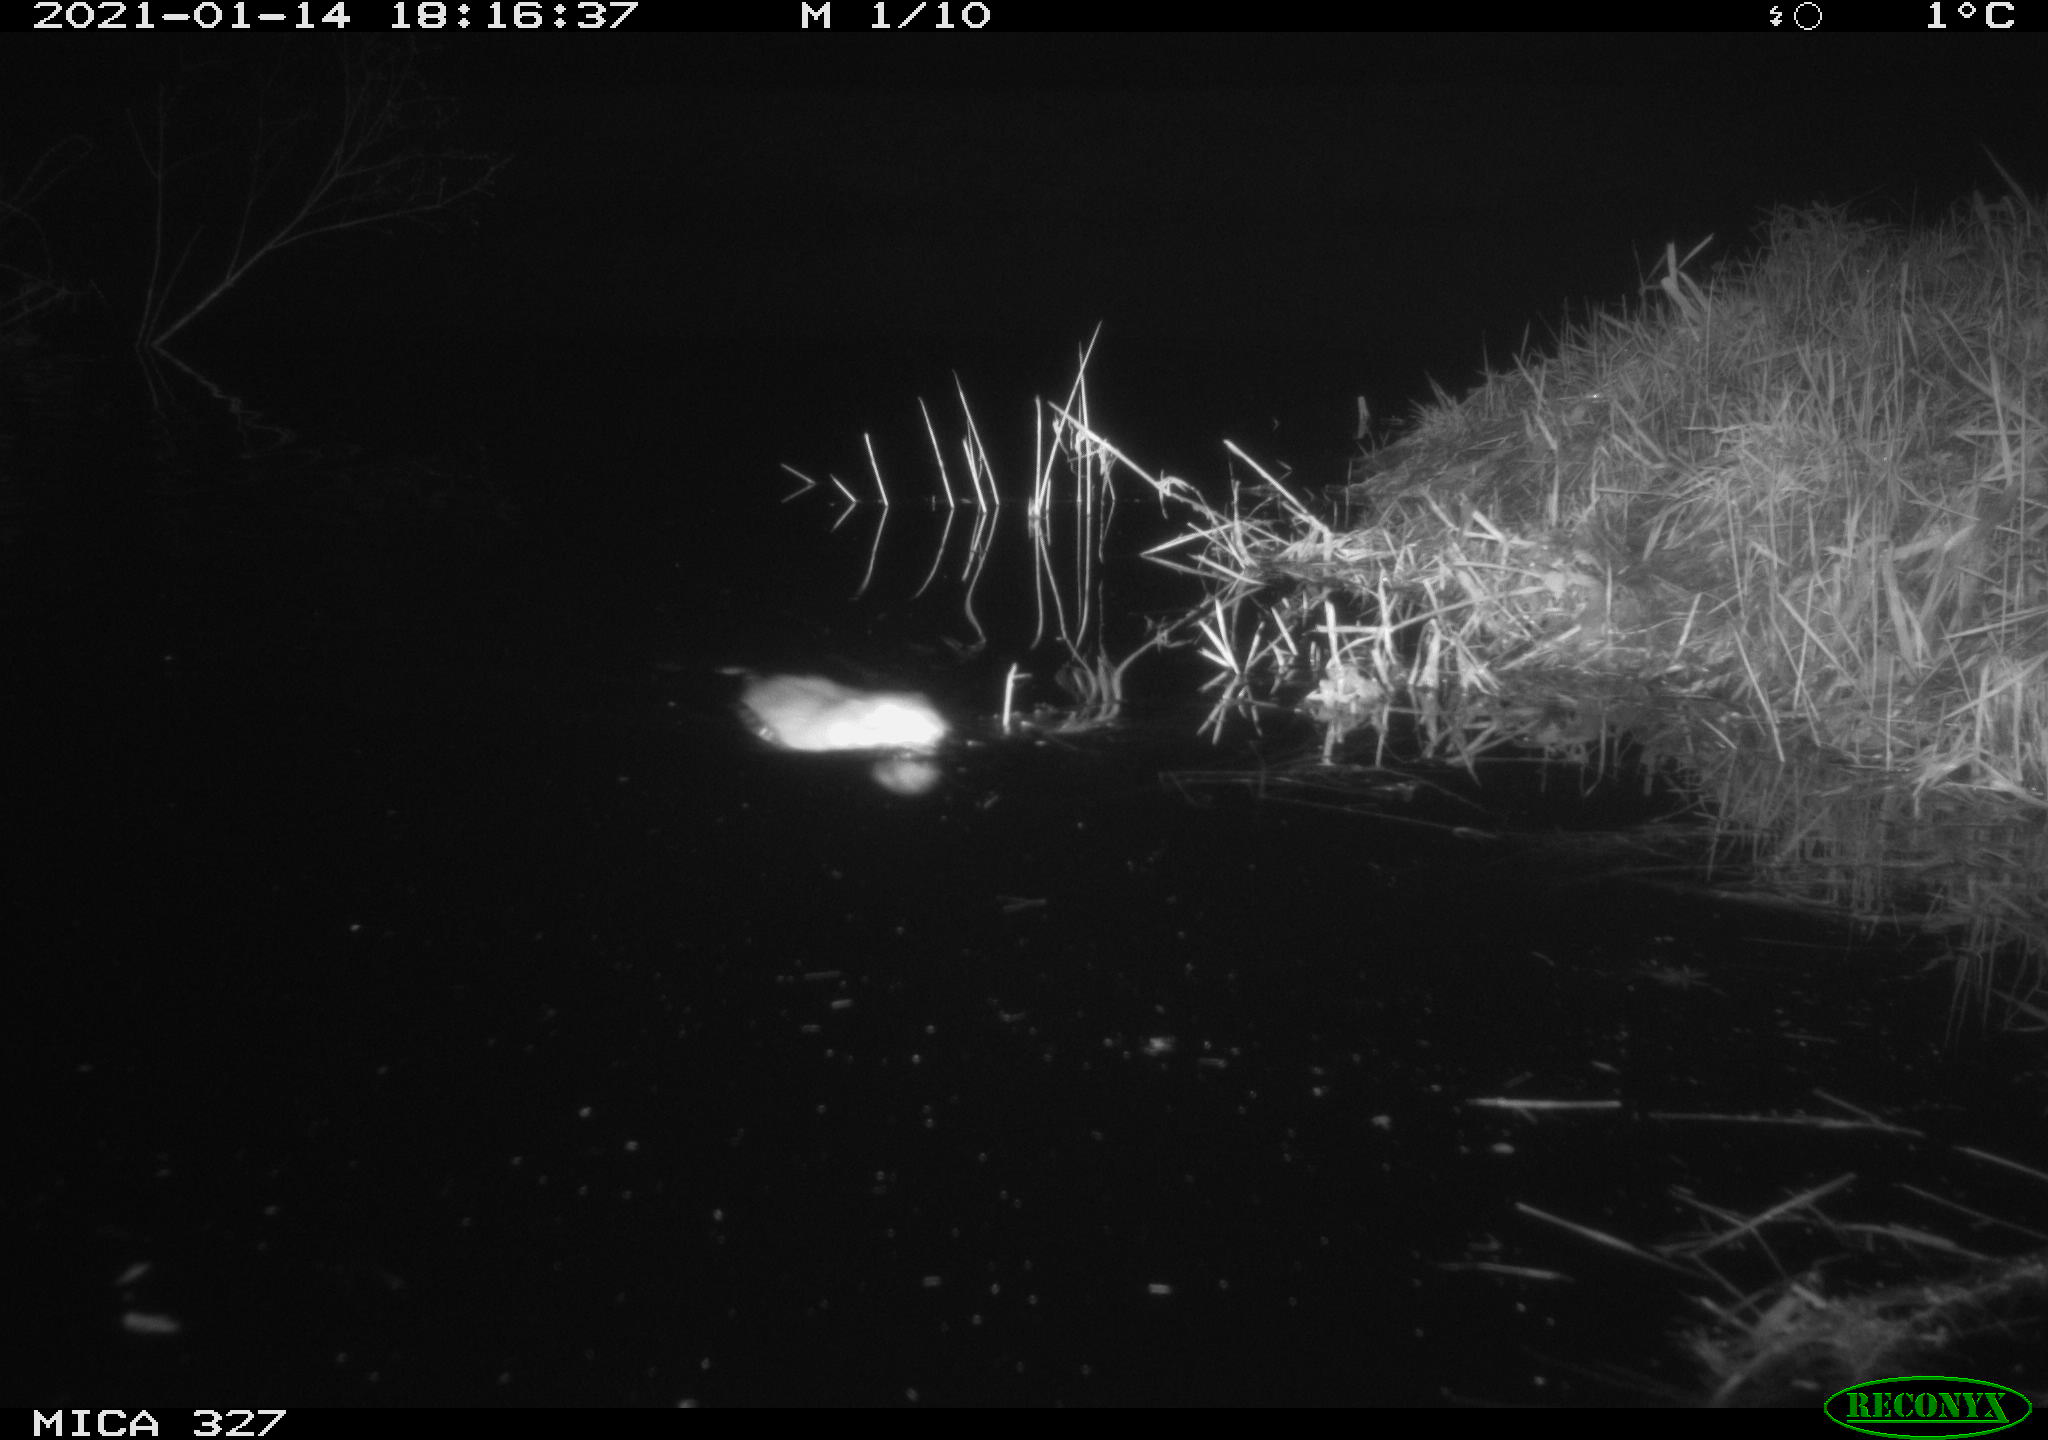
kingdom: Animalia
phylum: Chordata
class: Mammalia
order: Rodentia
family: Cricetidae
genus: Ondatra
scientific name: Ondatra zibethicus
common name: Muskrat
